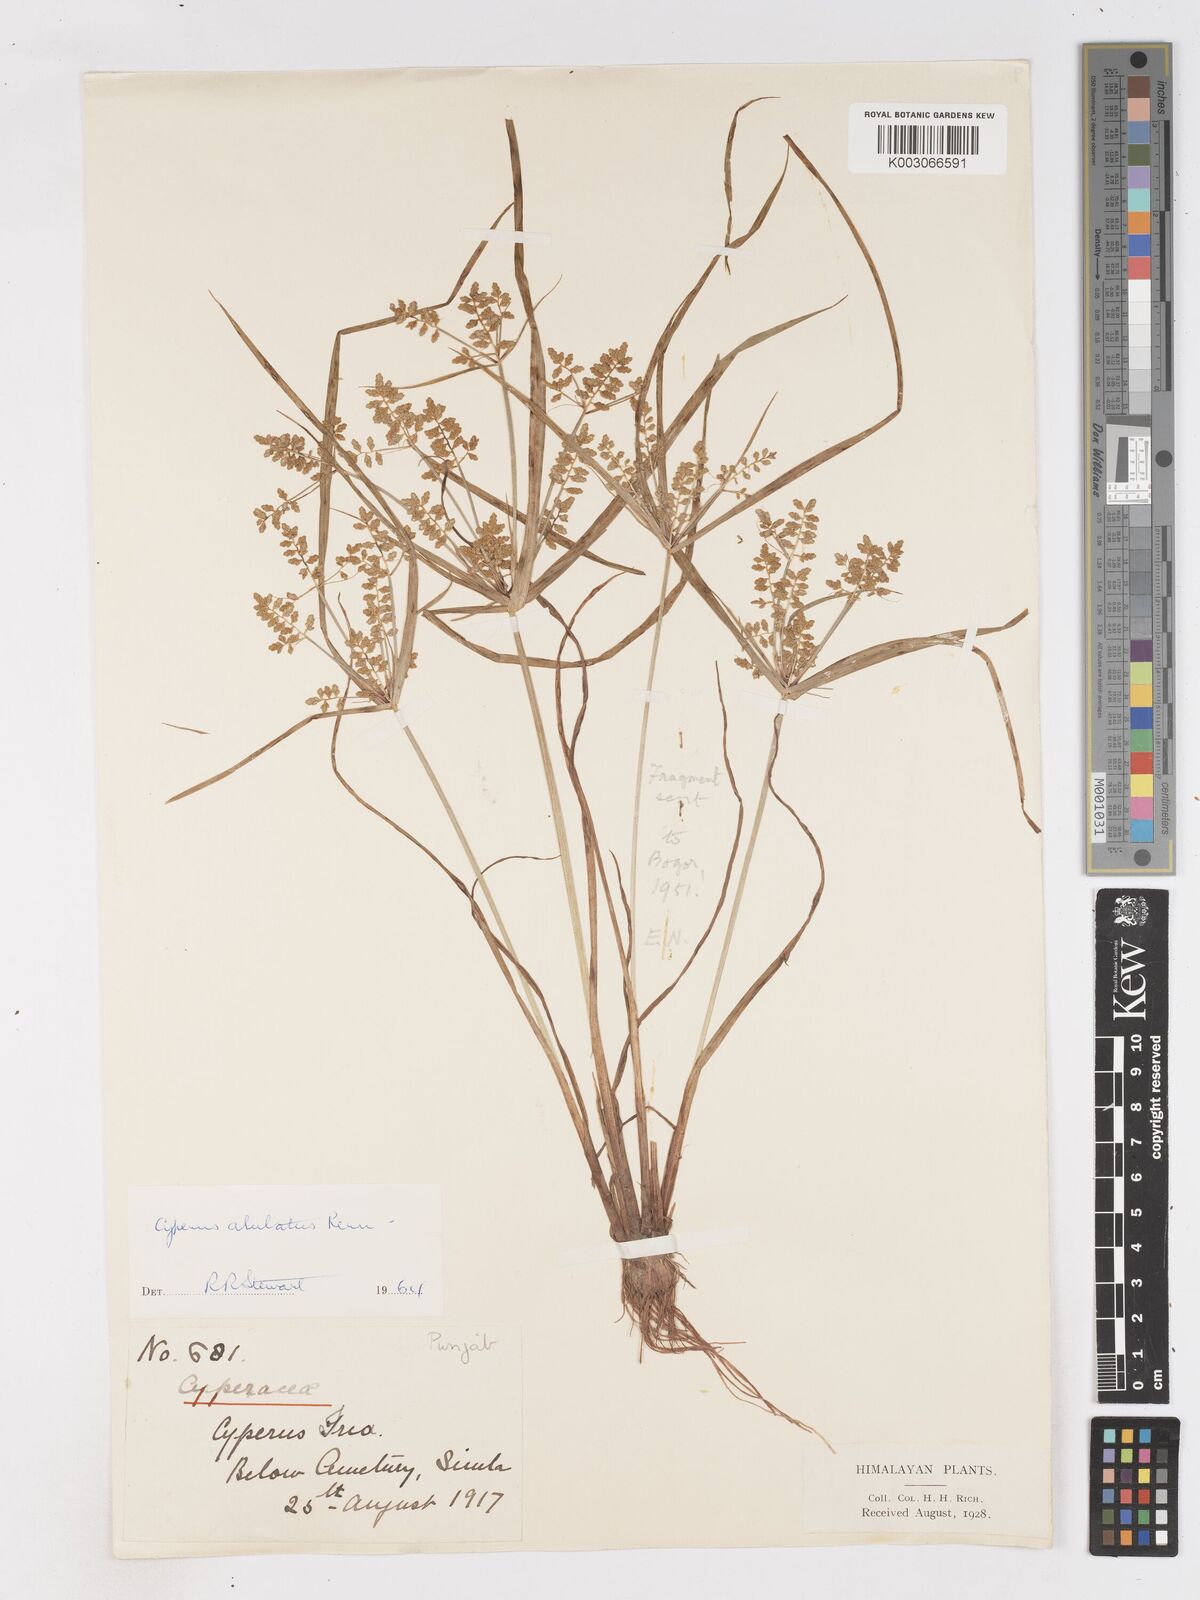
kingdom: Plantae
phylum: Tracheophyta
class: Liliopsida
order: Poales
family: Cyperaceae
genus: Cyperus
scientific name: Cyperus alulatus
